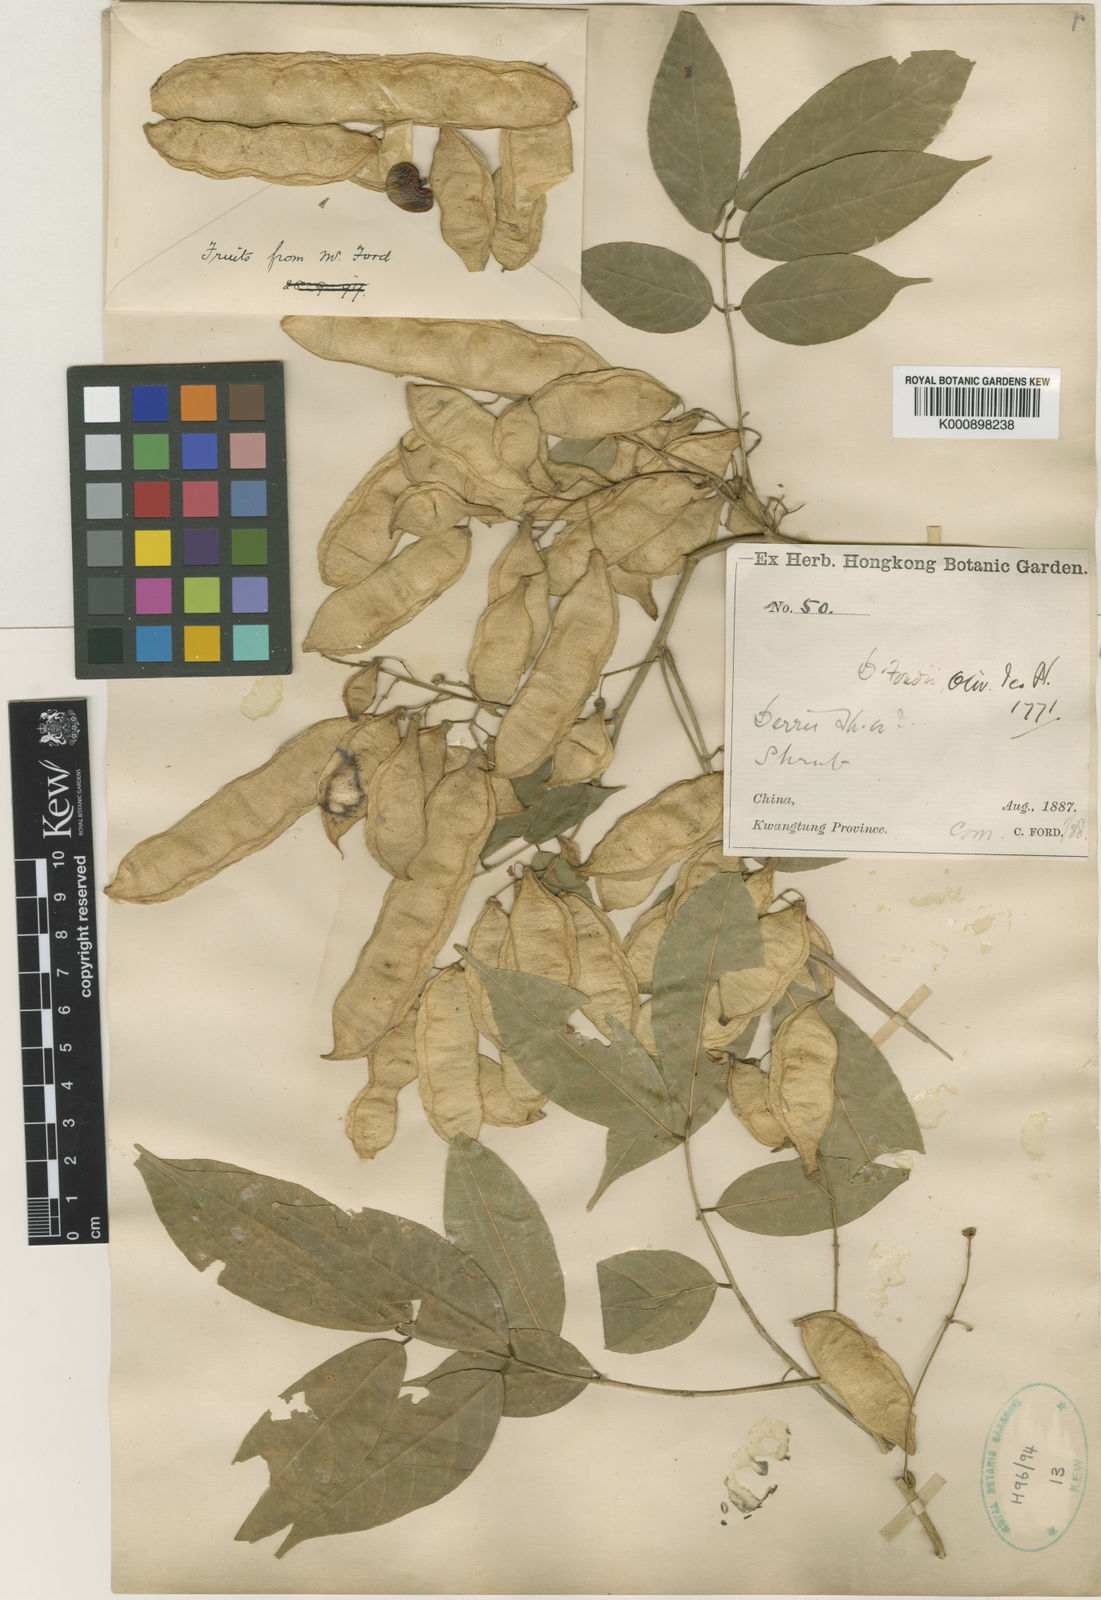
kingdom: Plantae
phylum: Tracheophyta
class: Magnoliopsida
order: Fabales
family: Fabaceae
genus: Derris
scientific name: Derris fordii
